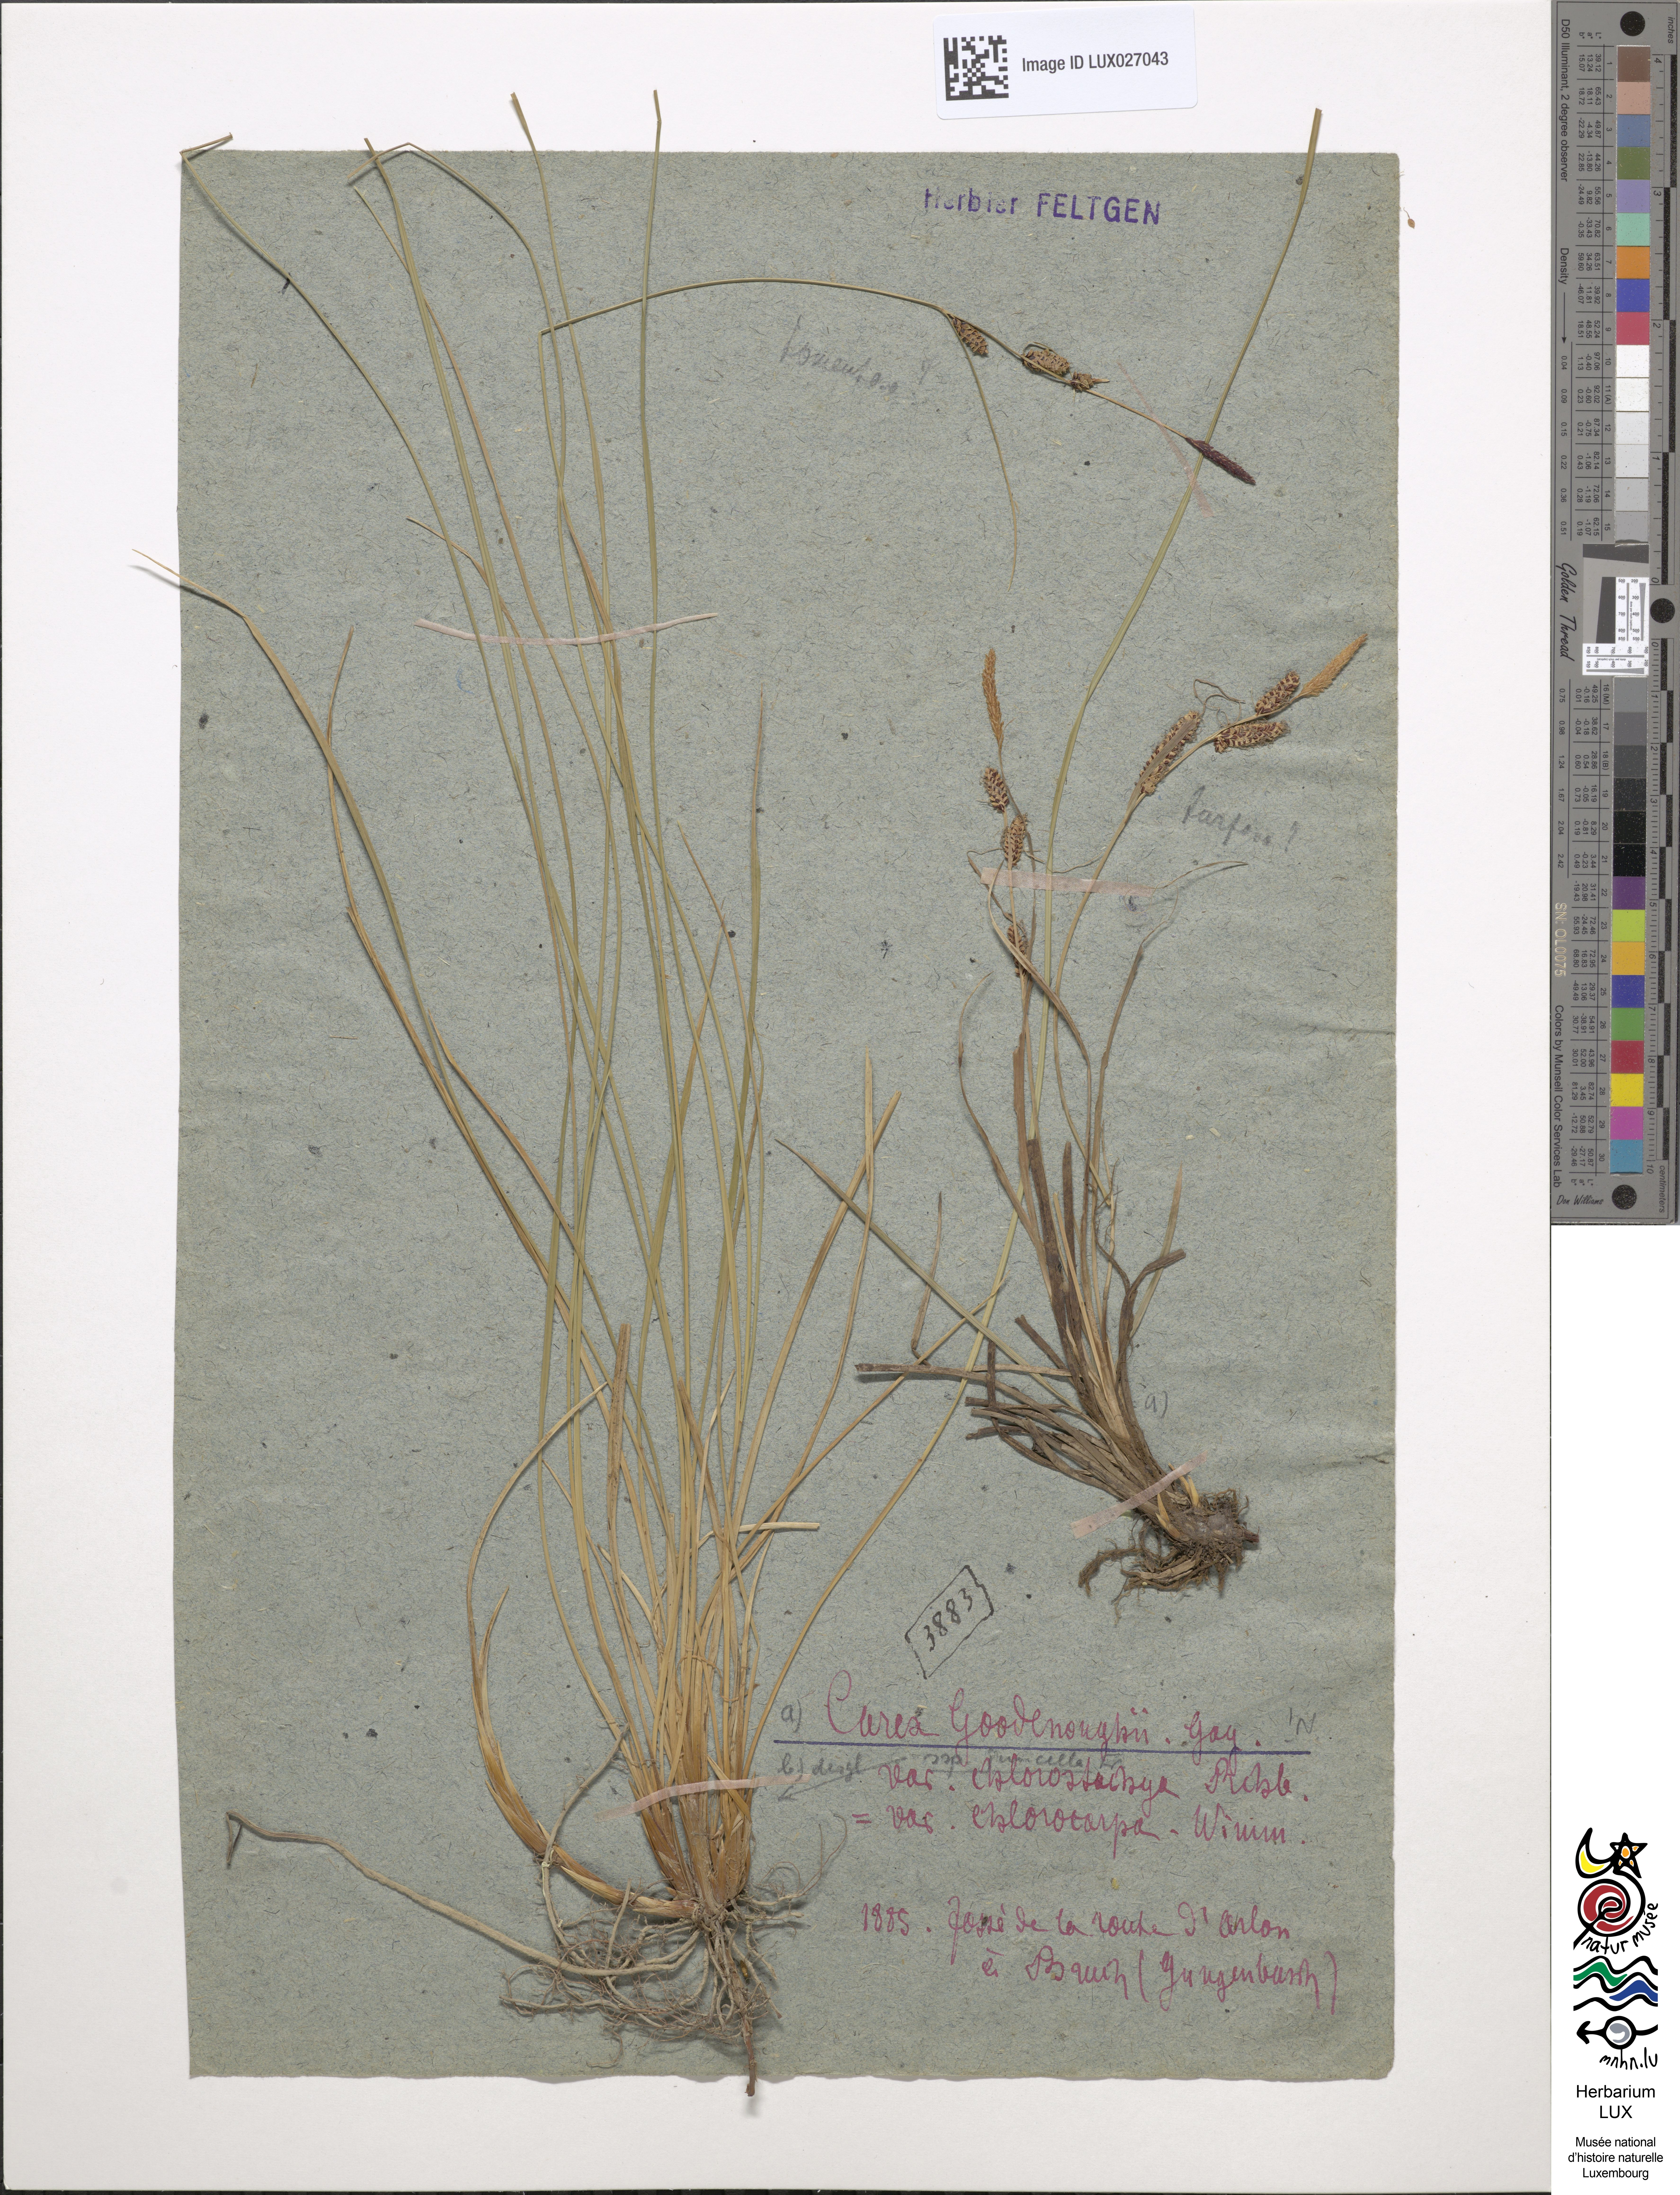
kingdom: Plantae
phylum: Tracheophyta
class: Liliopsida
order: Poales
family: Cyperaceae
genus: Carex
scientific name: Carex nigra
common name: Common sedge
